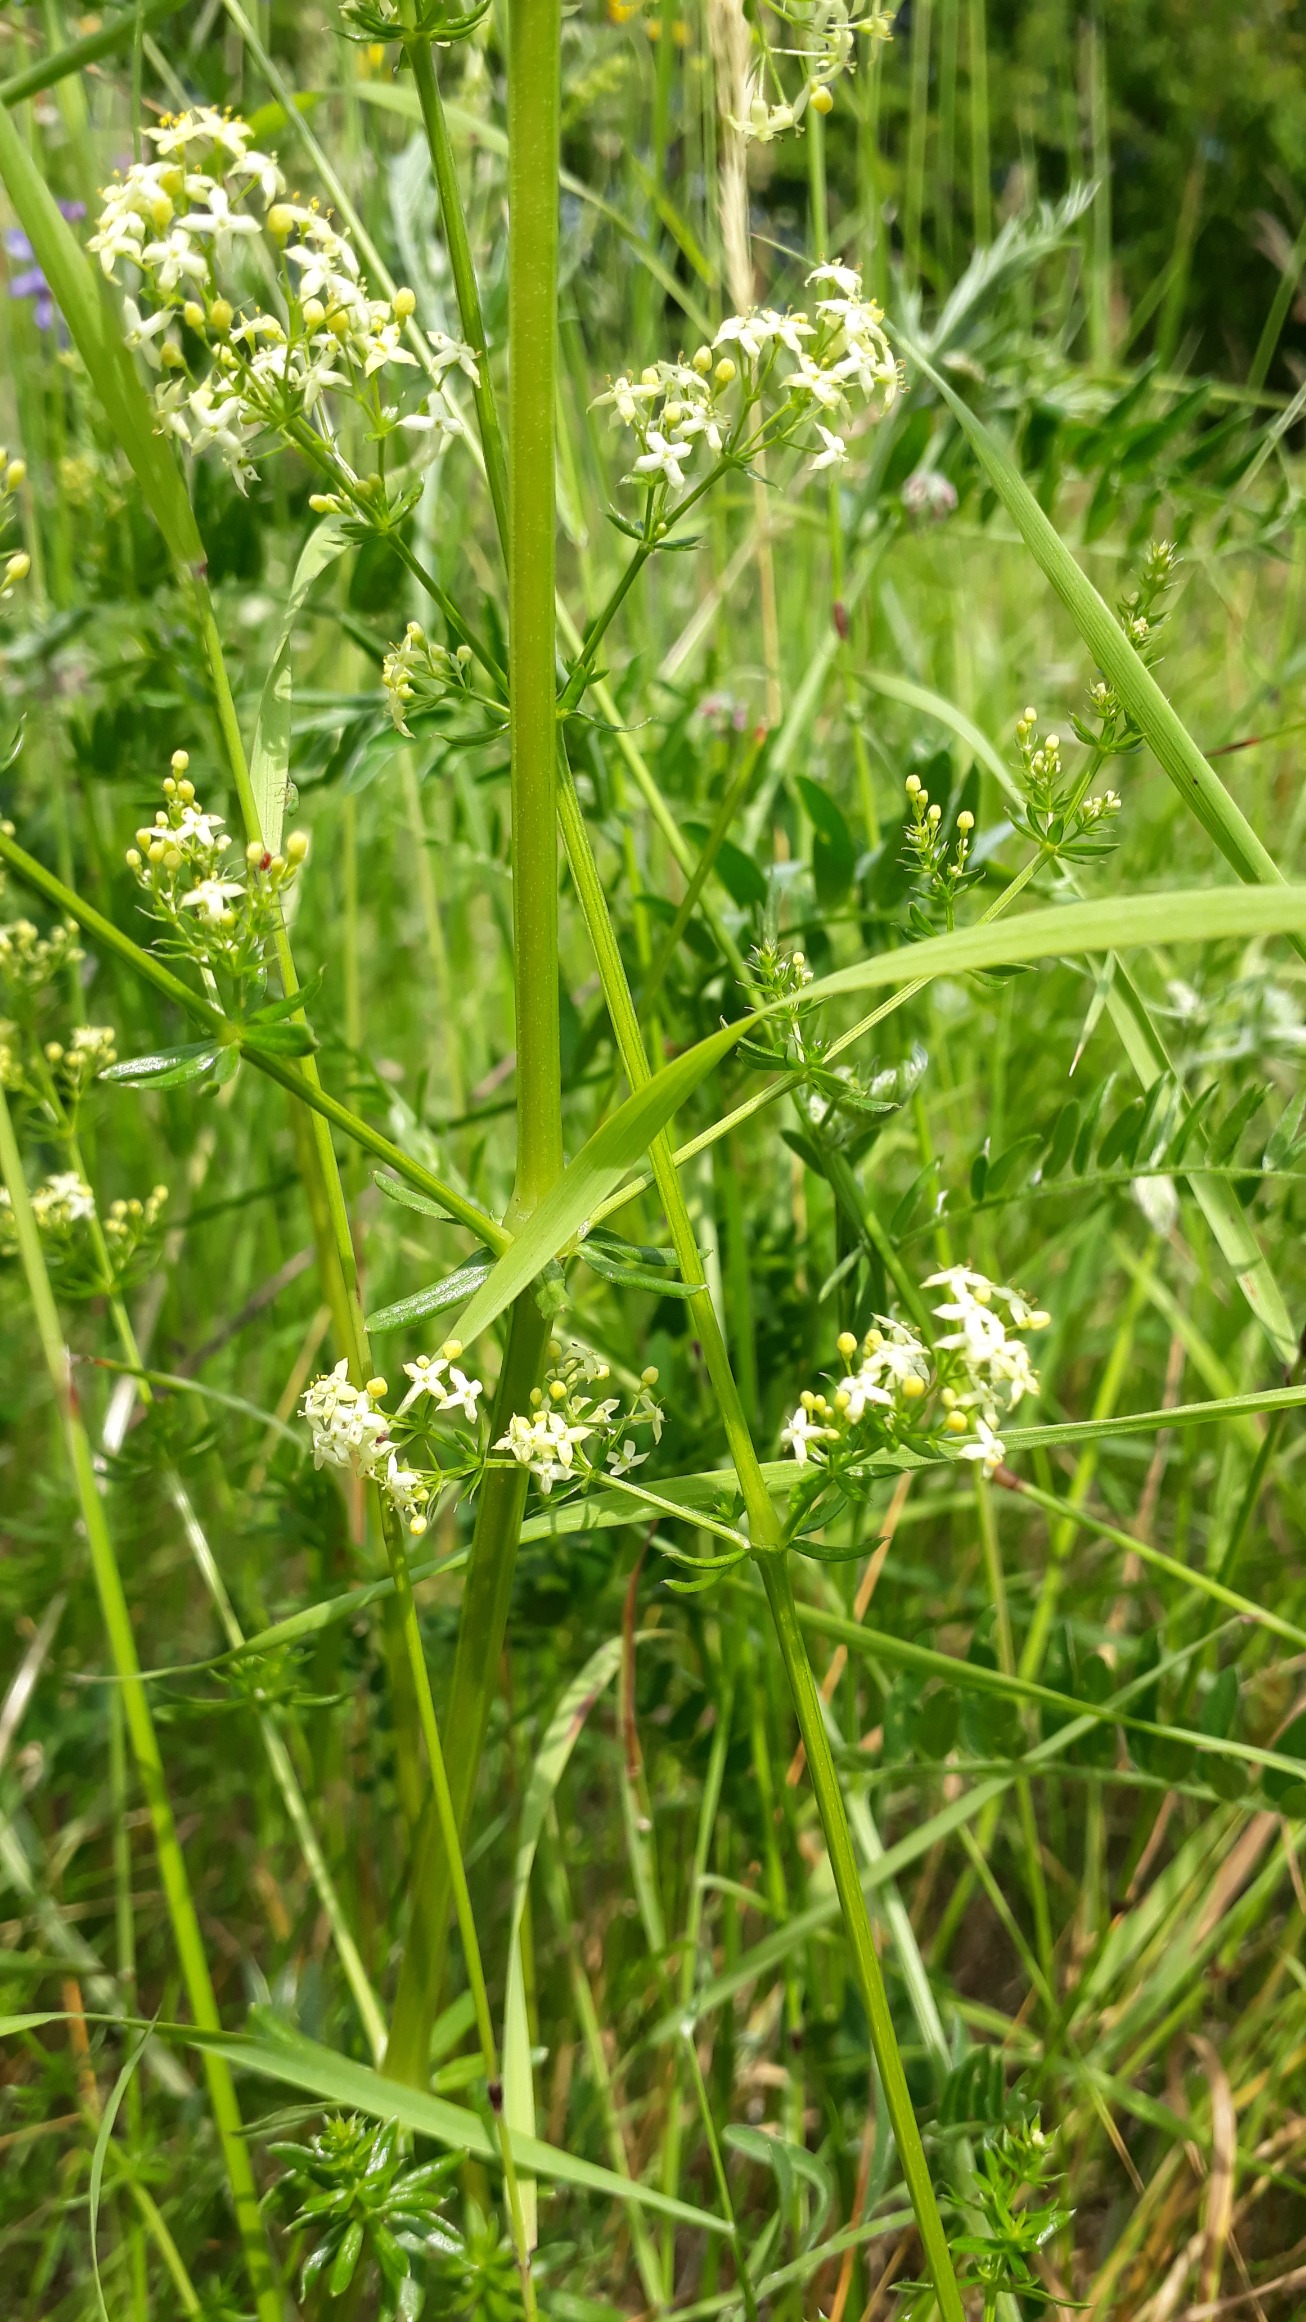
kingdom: Plantae
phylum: Tracheophyta
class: Magnoliopsida
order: Gentianales
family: Rubiaceae
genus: Galium
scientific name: Galium mollugo
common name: Hvid snerre
